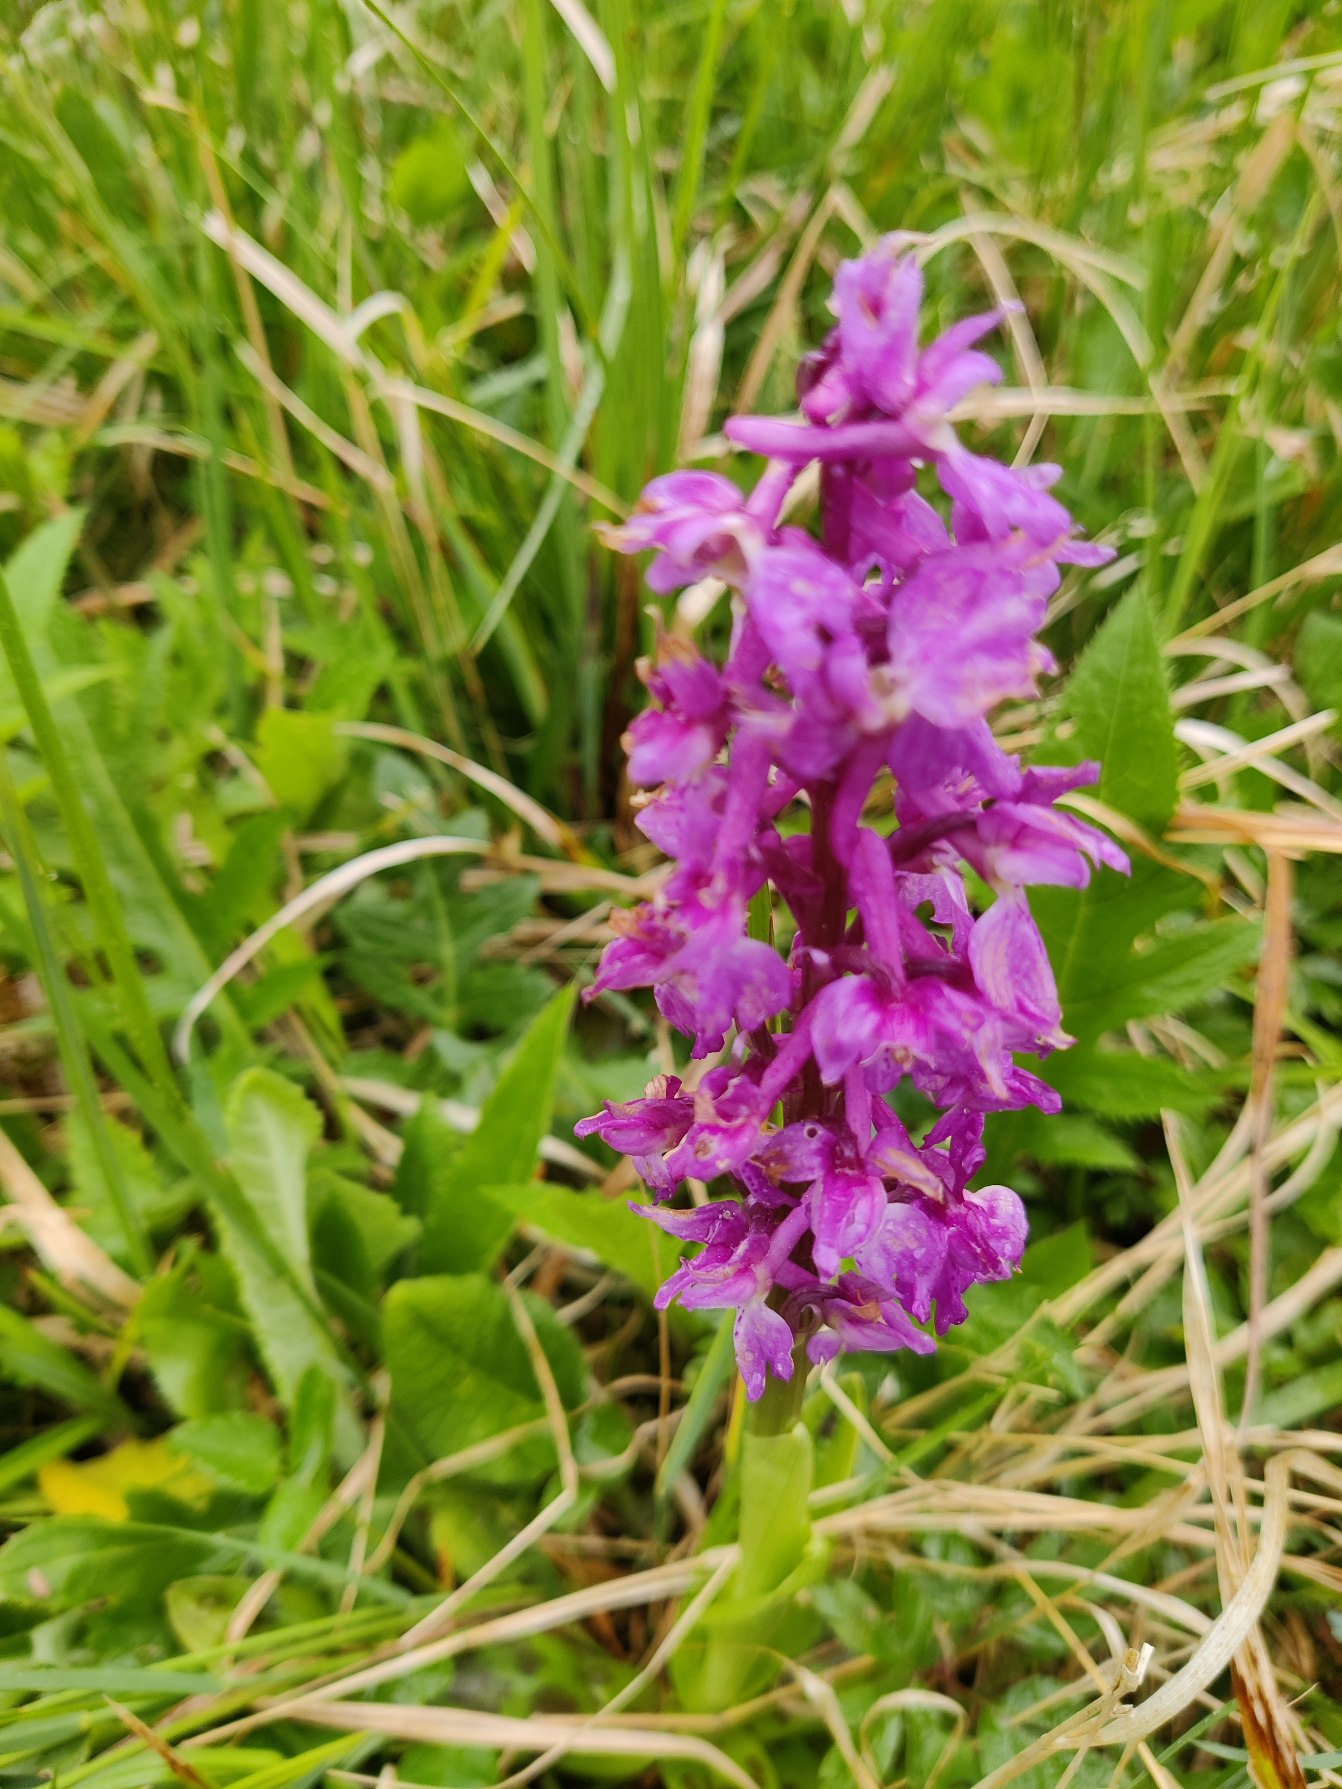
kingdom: Plantae
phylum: Tracheophyta
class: Liliopsida
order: Asparagales
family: Orchidaceae
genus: Orchis
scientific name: Orchis mascula
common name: Tyndakset gøgeurt
